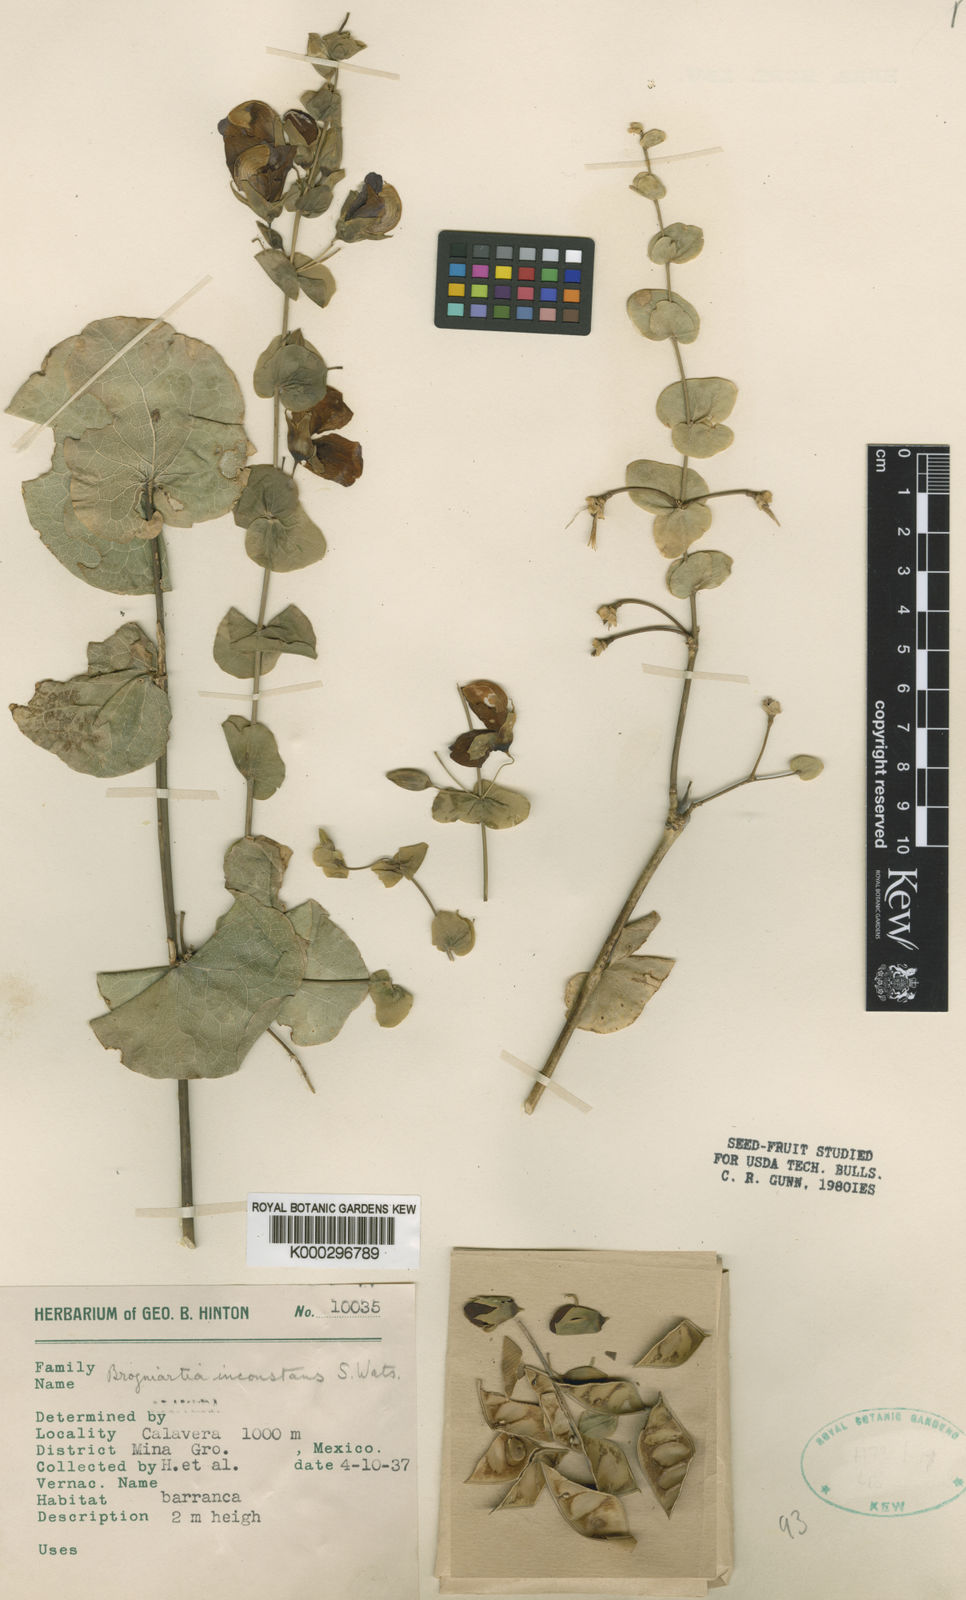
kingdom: Plantae
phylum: Tracheophyta
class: Magnoliopsida
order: Fabales
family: Fabaceae
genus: Brongniartia
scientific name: Brongniartia inconstans
